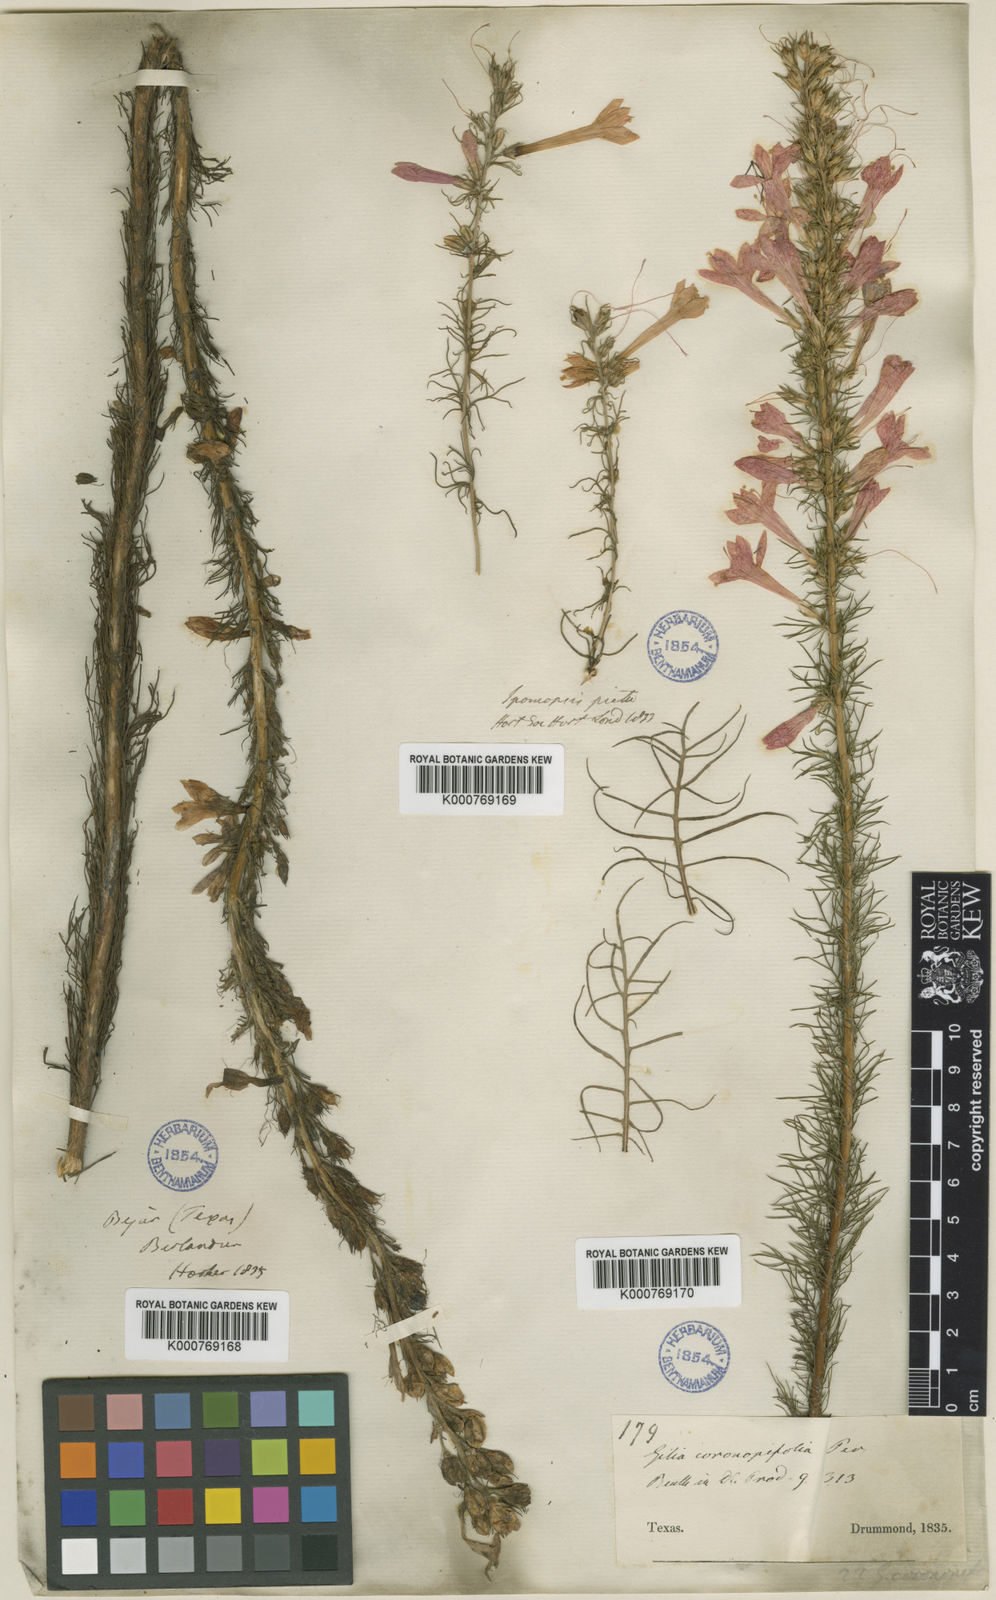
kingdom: Plantae
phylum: Tracheophyta
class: Magnoliopsida
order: Ericales
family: Polemoniaceae
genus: Ipomopsis
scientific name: Ipomopsis aggregata
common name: Scarlet gilia
